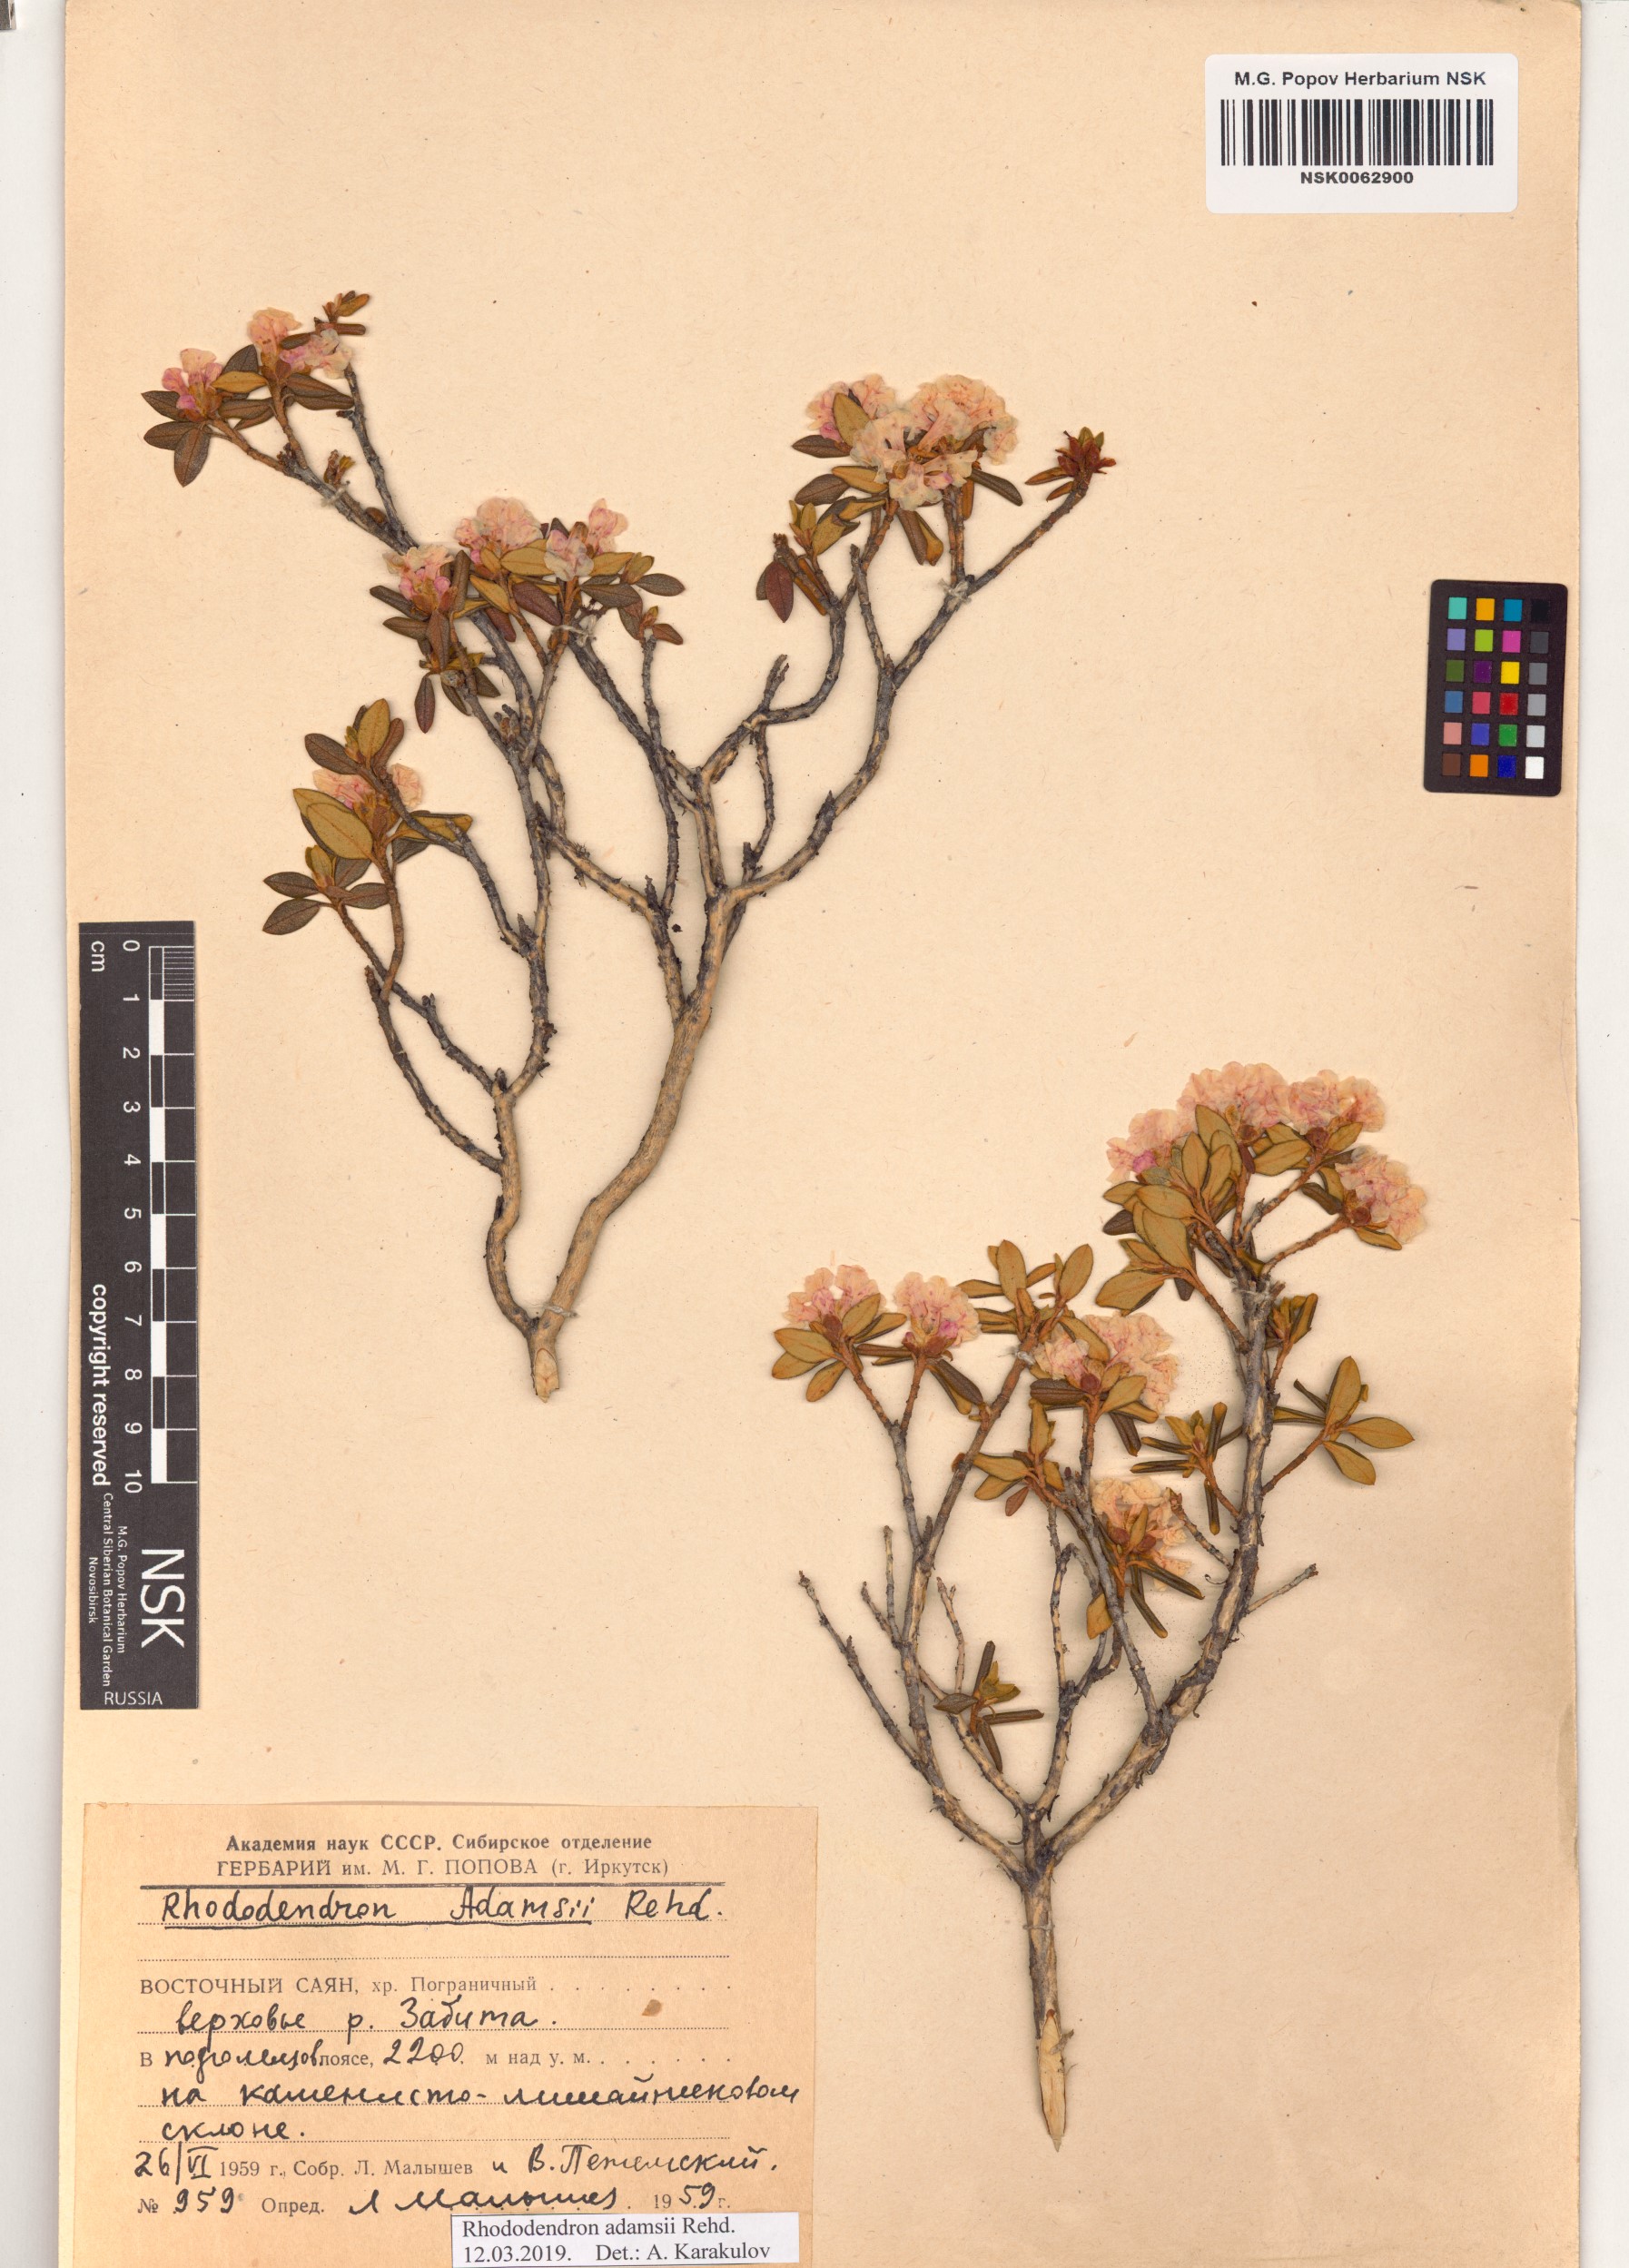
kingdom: Plantae
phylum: Tracheophyta
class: Magnoliopsida
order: Ericales
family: Ericaceae
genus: Rhododendron
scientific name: Rhododendron adamsii
